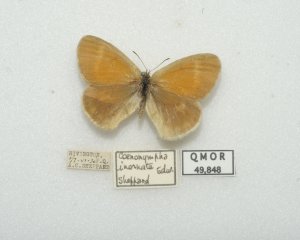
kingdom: Animalia
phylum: Arthropoda
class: Insecta
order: Lepidoptera
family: Nymphalidae
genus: Coenonympha
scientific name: Coenonympha tullia
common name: Large Heath
